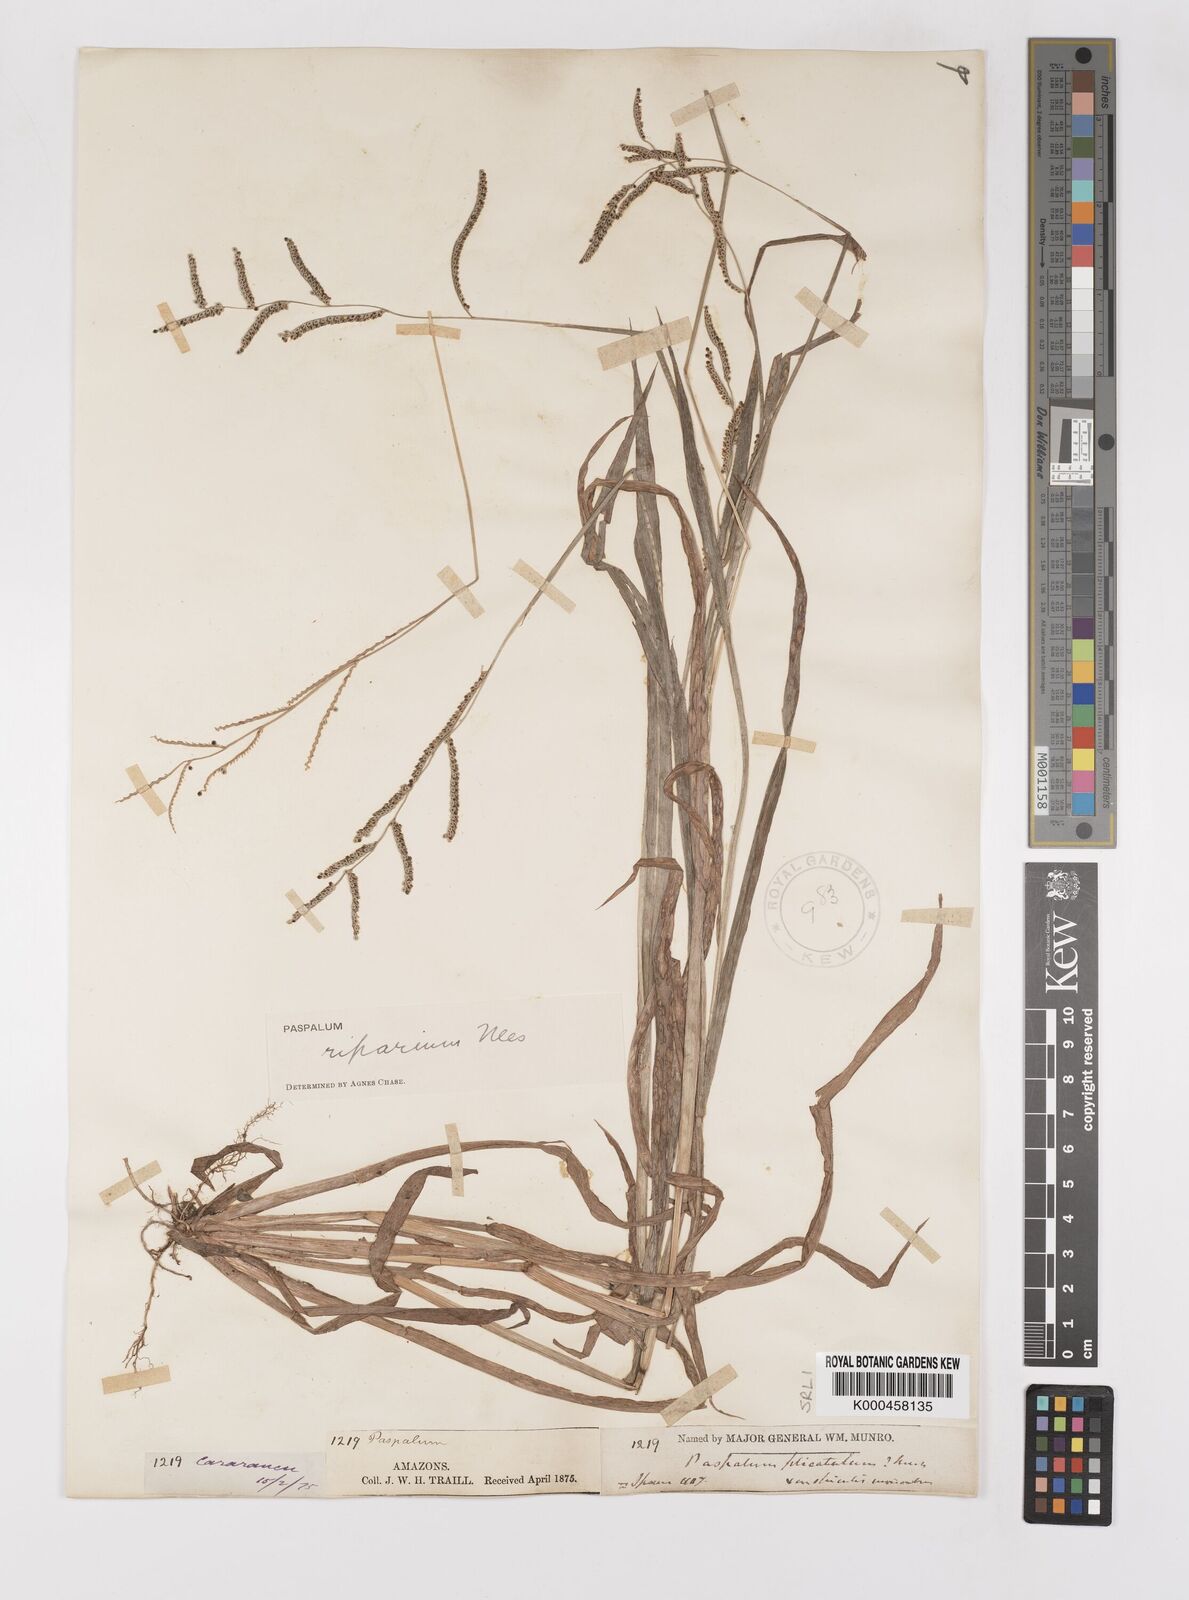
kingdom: Plantae
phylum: Tracheophyta
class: Liliopsida
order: Poales
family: Poaceae
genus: Paspalum
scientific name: Paspalum
